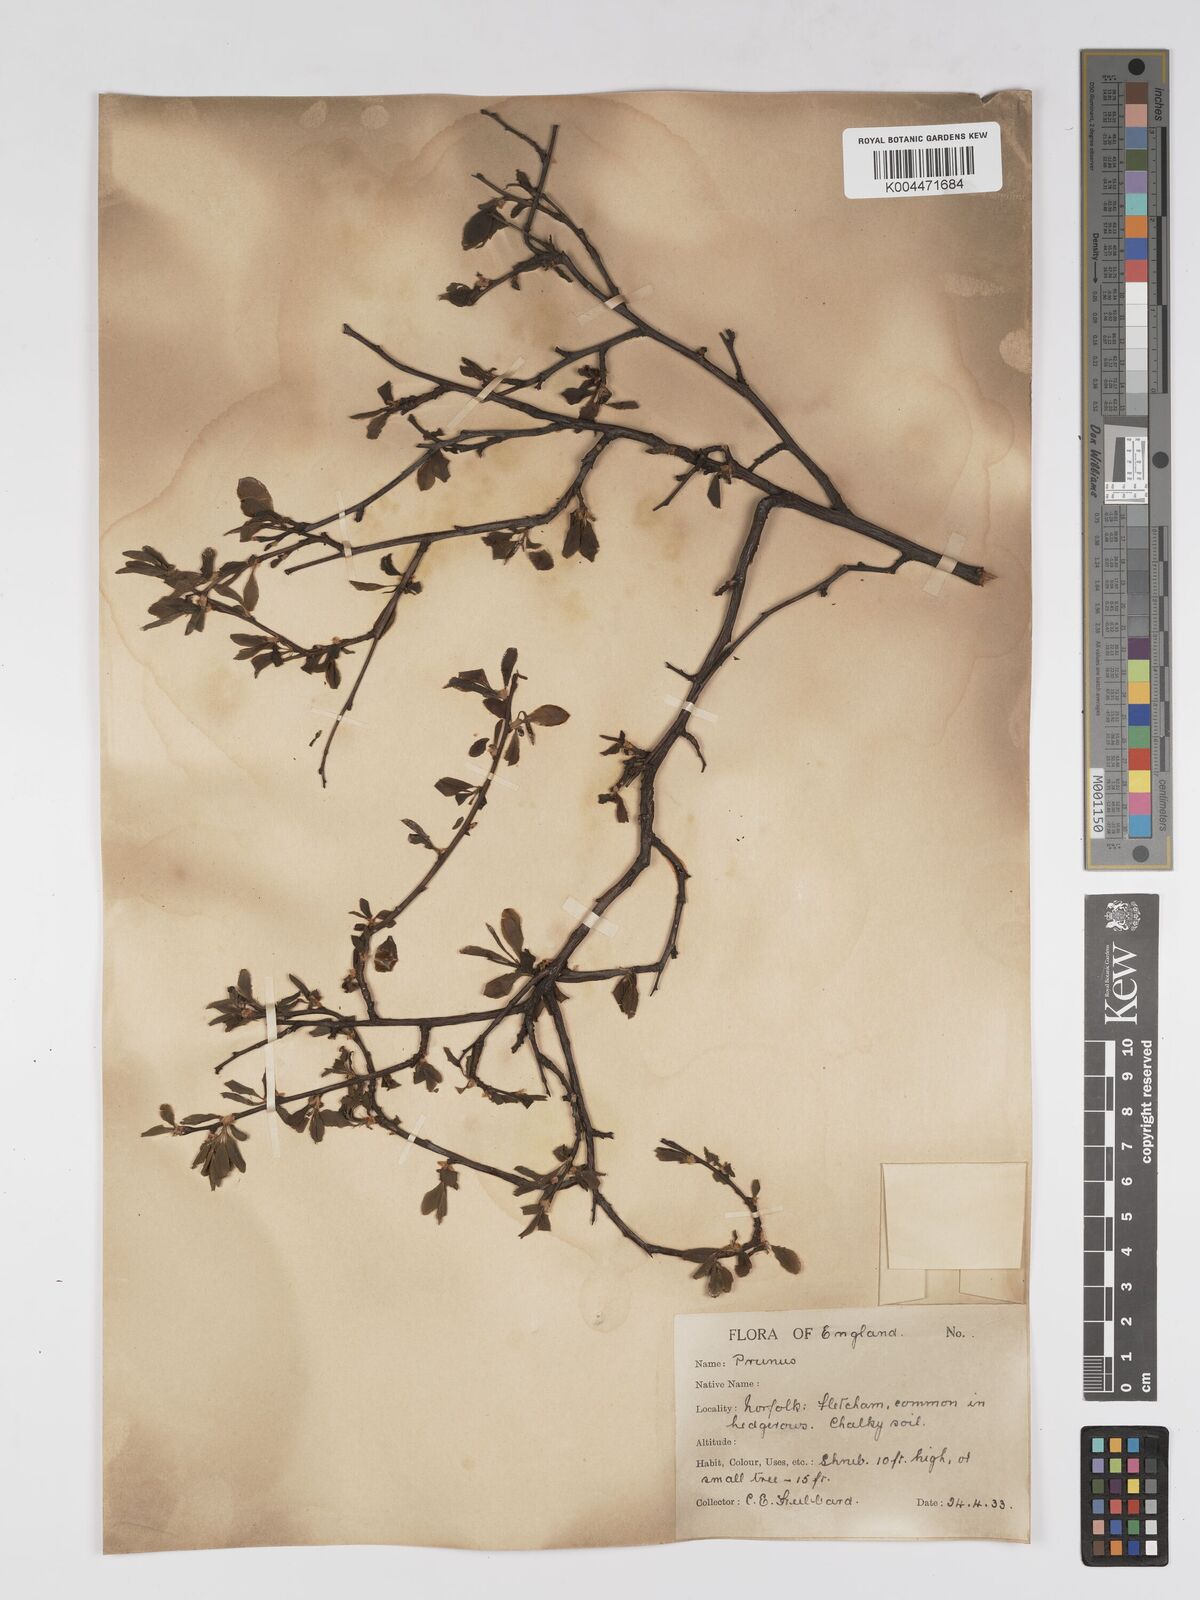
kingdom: Plantae
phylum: Tracheophyta
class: Magnoliopsida
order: Rosales
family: Rosaceae
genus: Prunus
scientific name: Prunus
